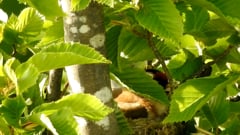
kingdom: Animalia
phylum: Chordata
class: Aves
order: Passeriformes
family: Fringillidae
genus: Carduelis
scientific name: Carduelis carduelis
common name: European goldfinch
